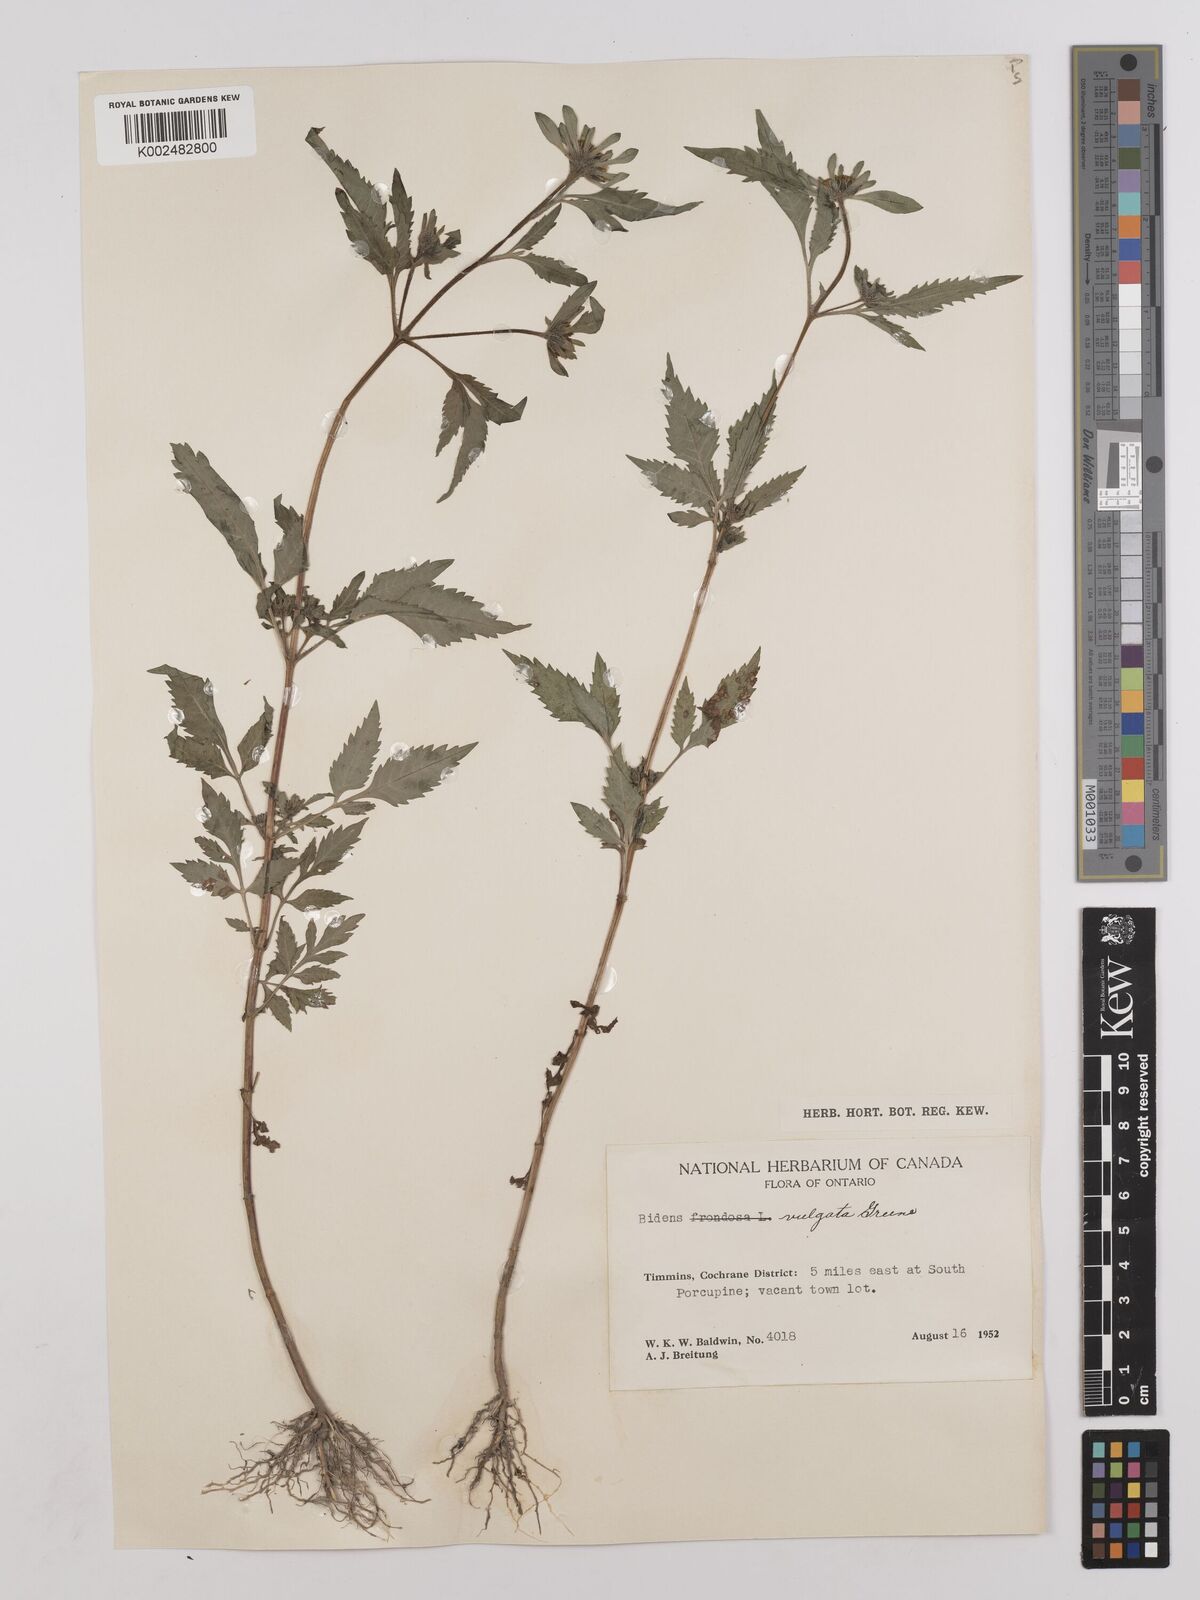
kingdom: Plantae
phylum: Tracheophyta
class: Magnoliopsida
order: Asterales
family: Asteraceae
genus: Bidens
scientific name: Bidens vulgata
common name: Tall beggarticks
